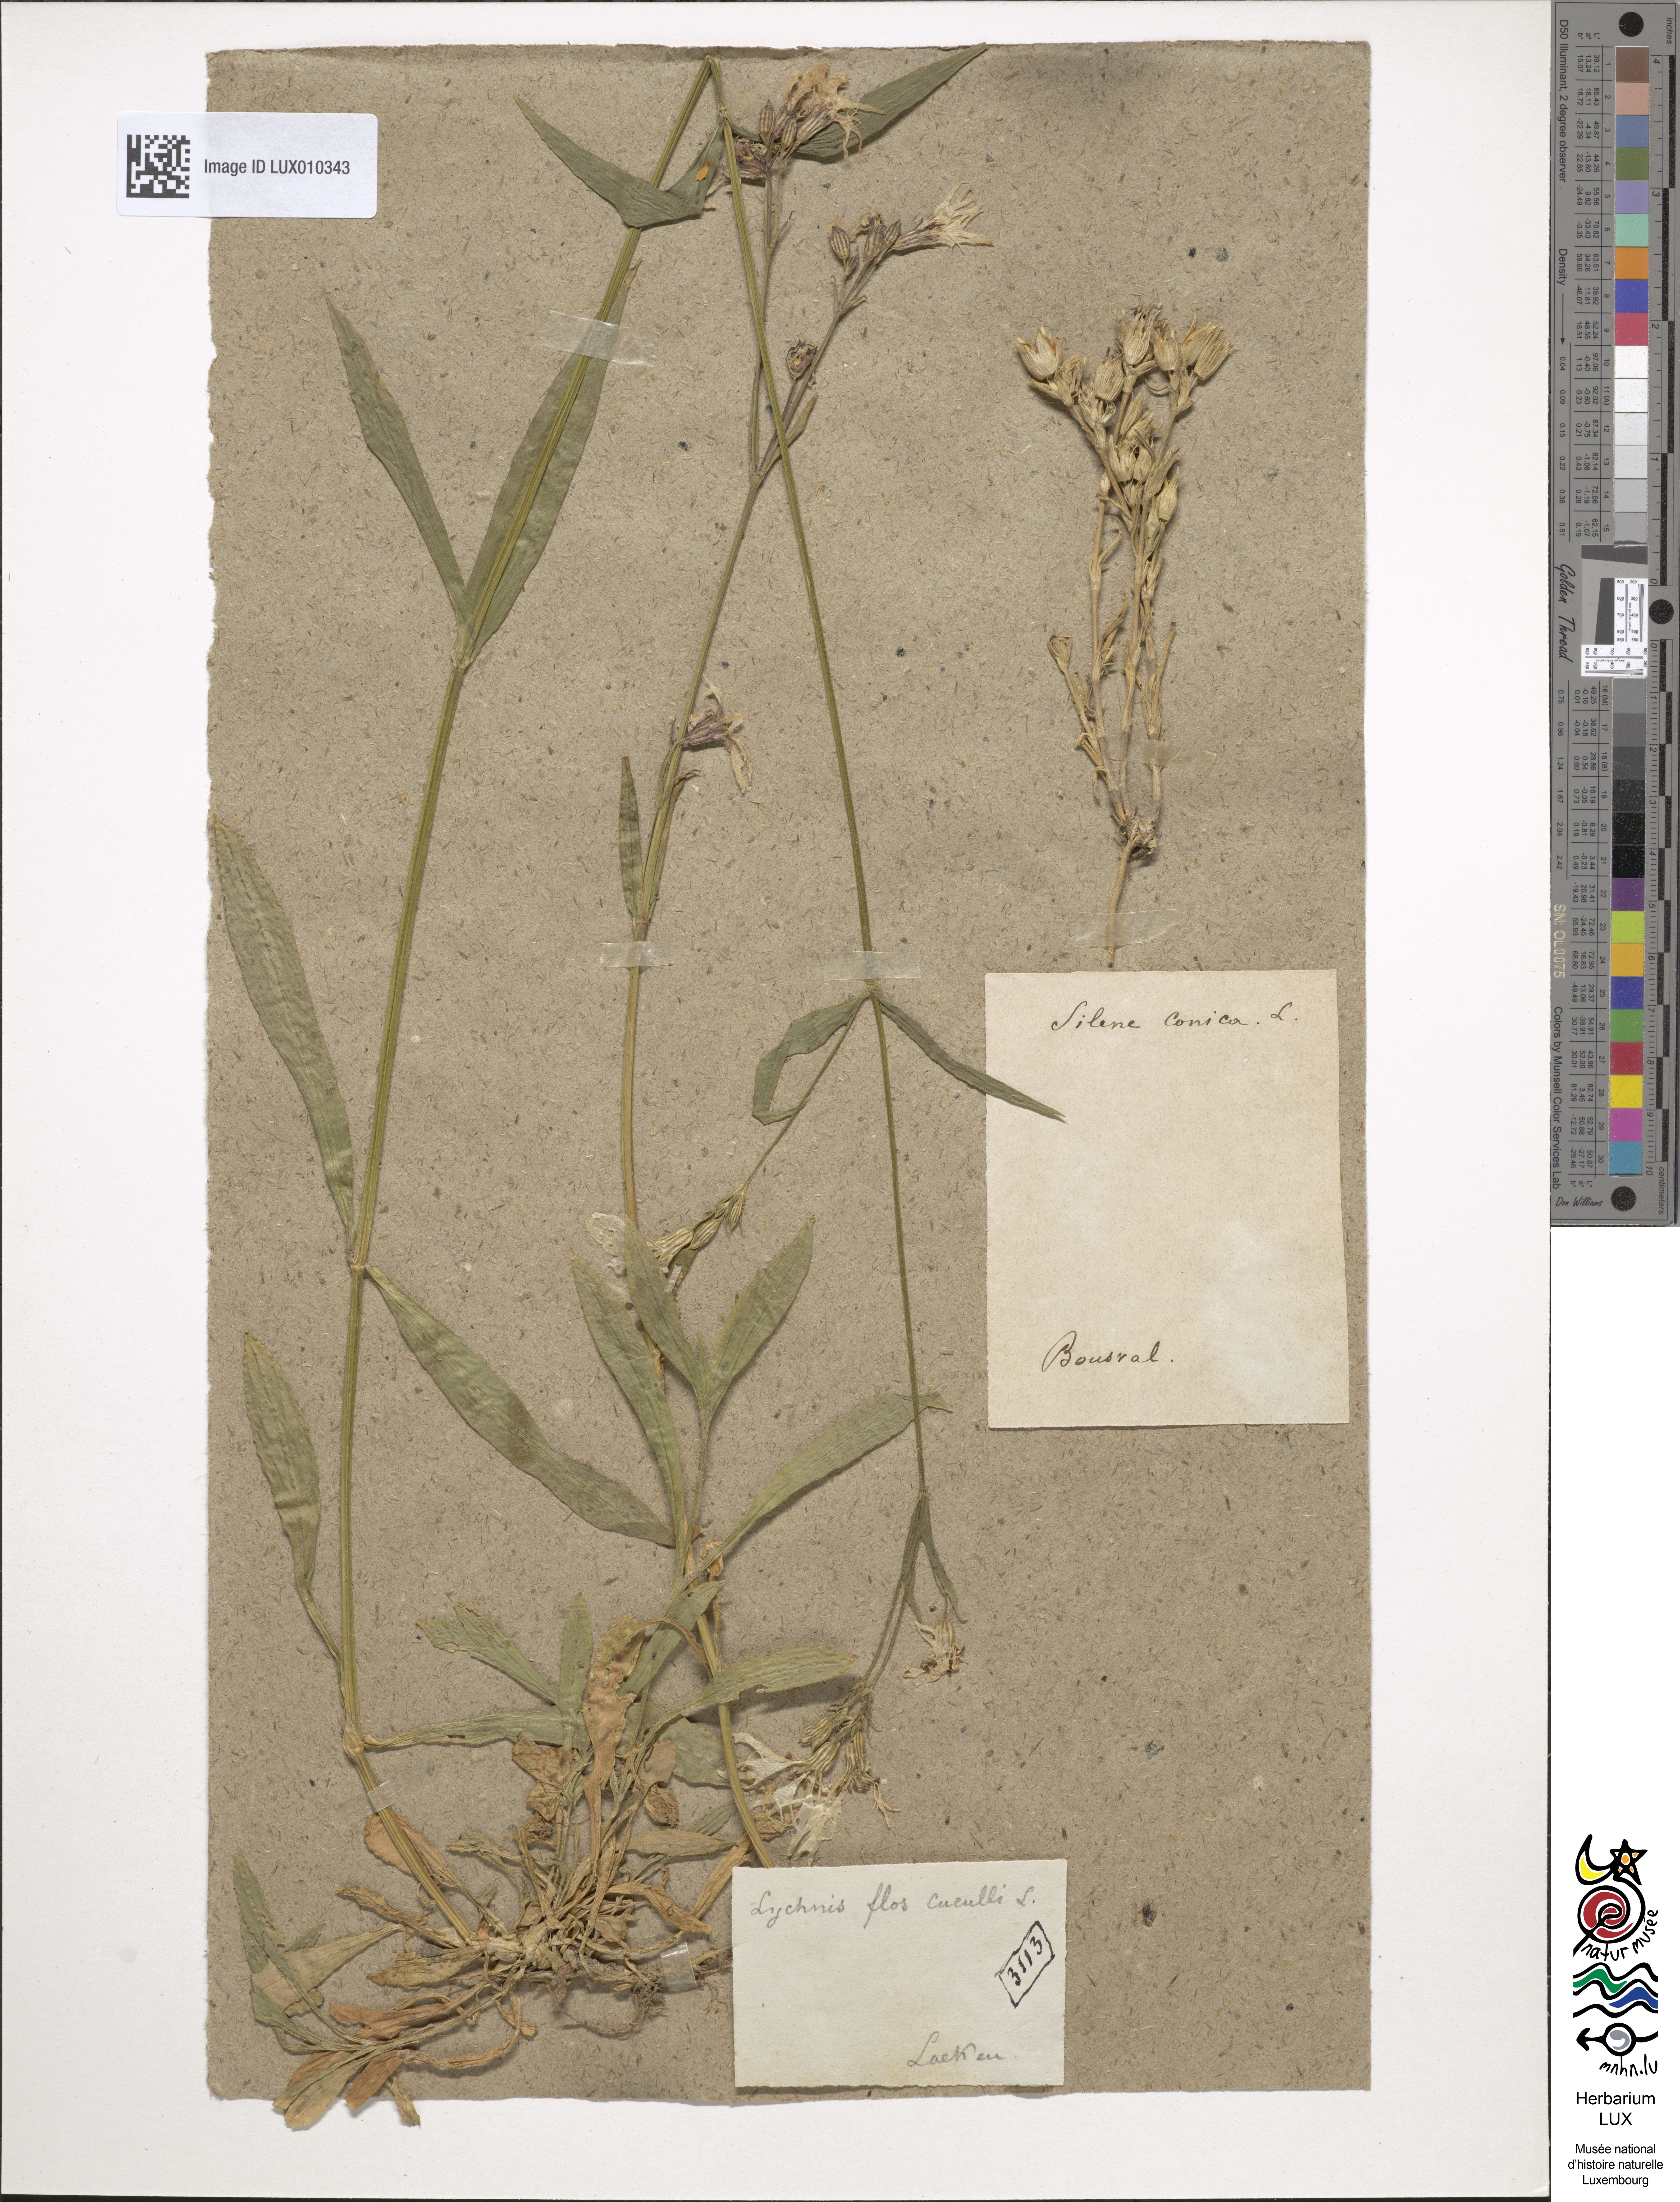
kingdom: Plantae
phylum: Tracheophyta
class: Magnoliopsida
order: Caryophyllales
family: Caryophyllaceae
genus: Silene
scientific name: Silene flos-cuculi
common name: Ragged-robin
